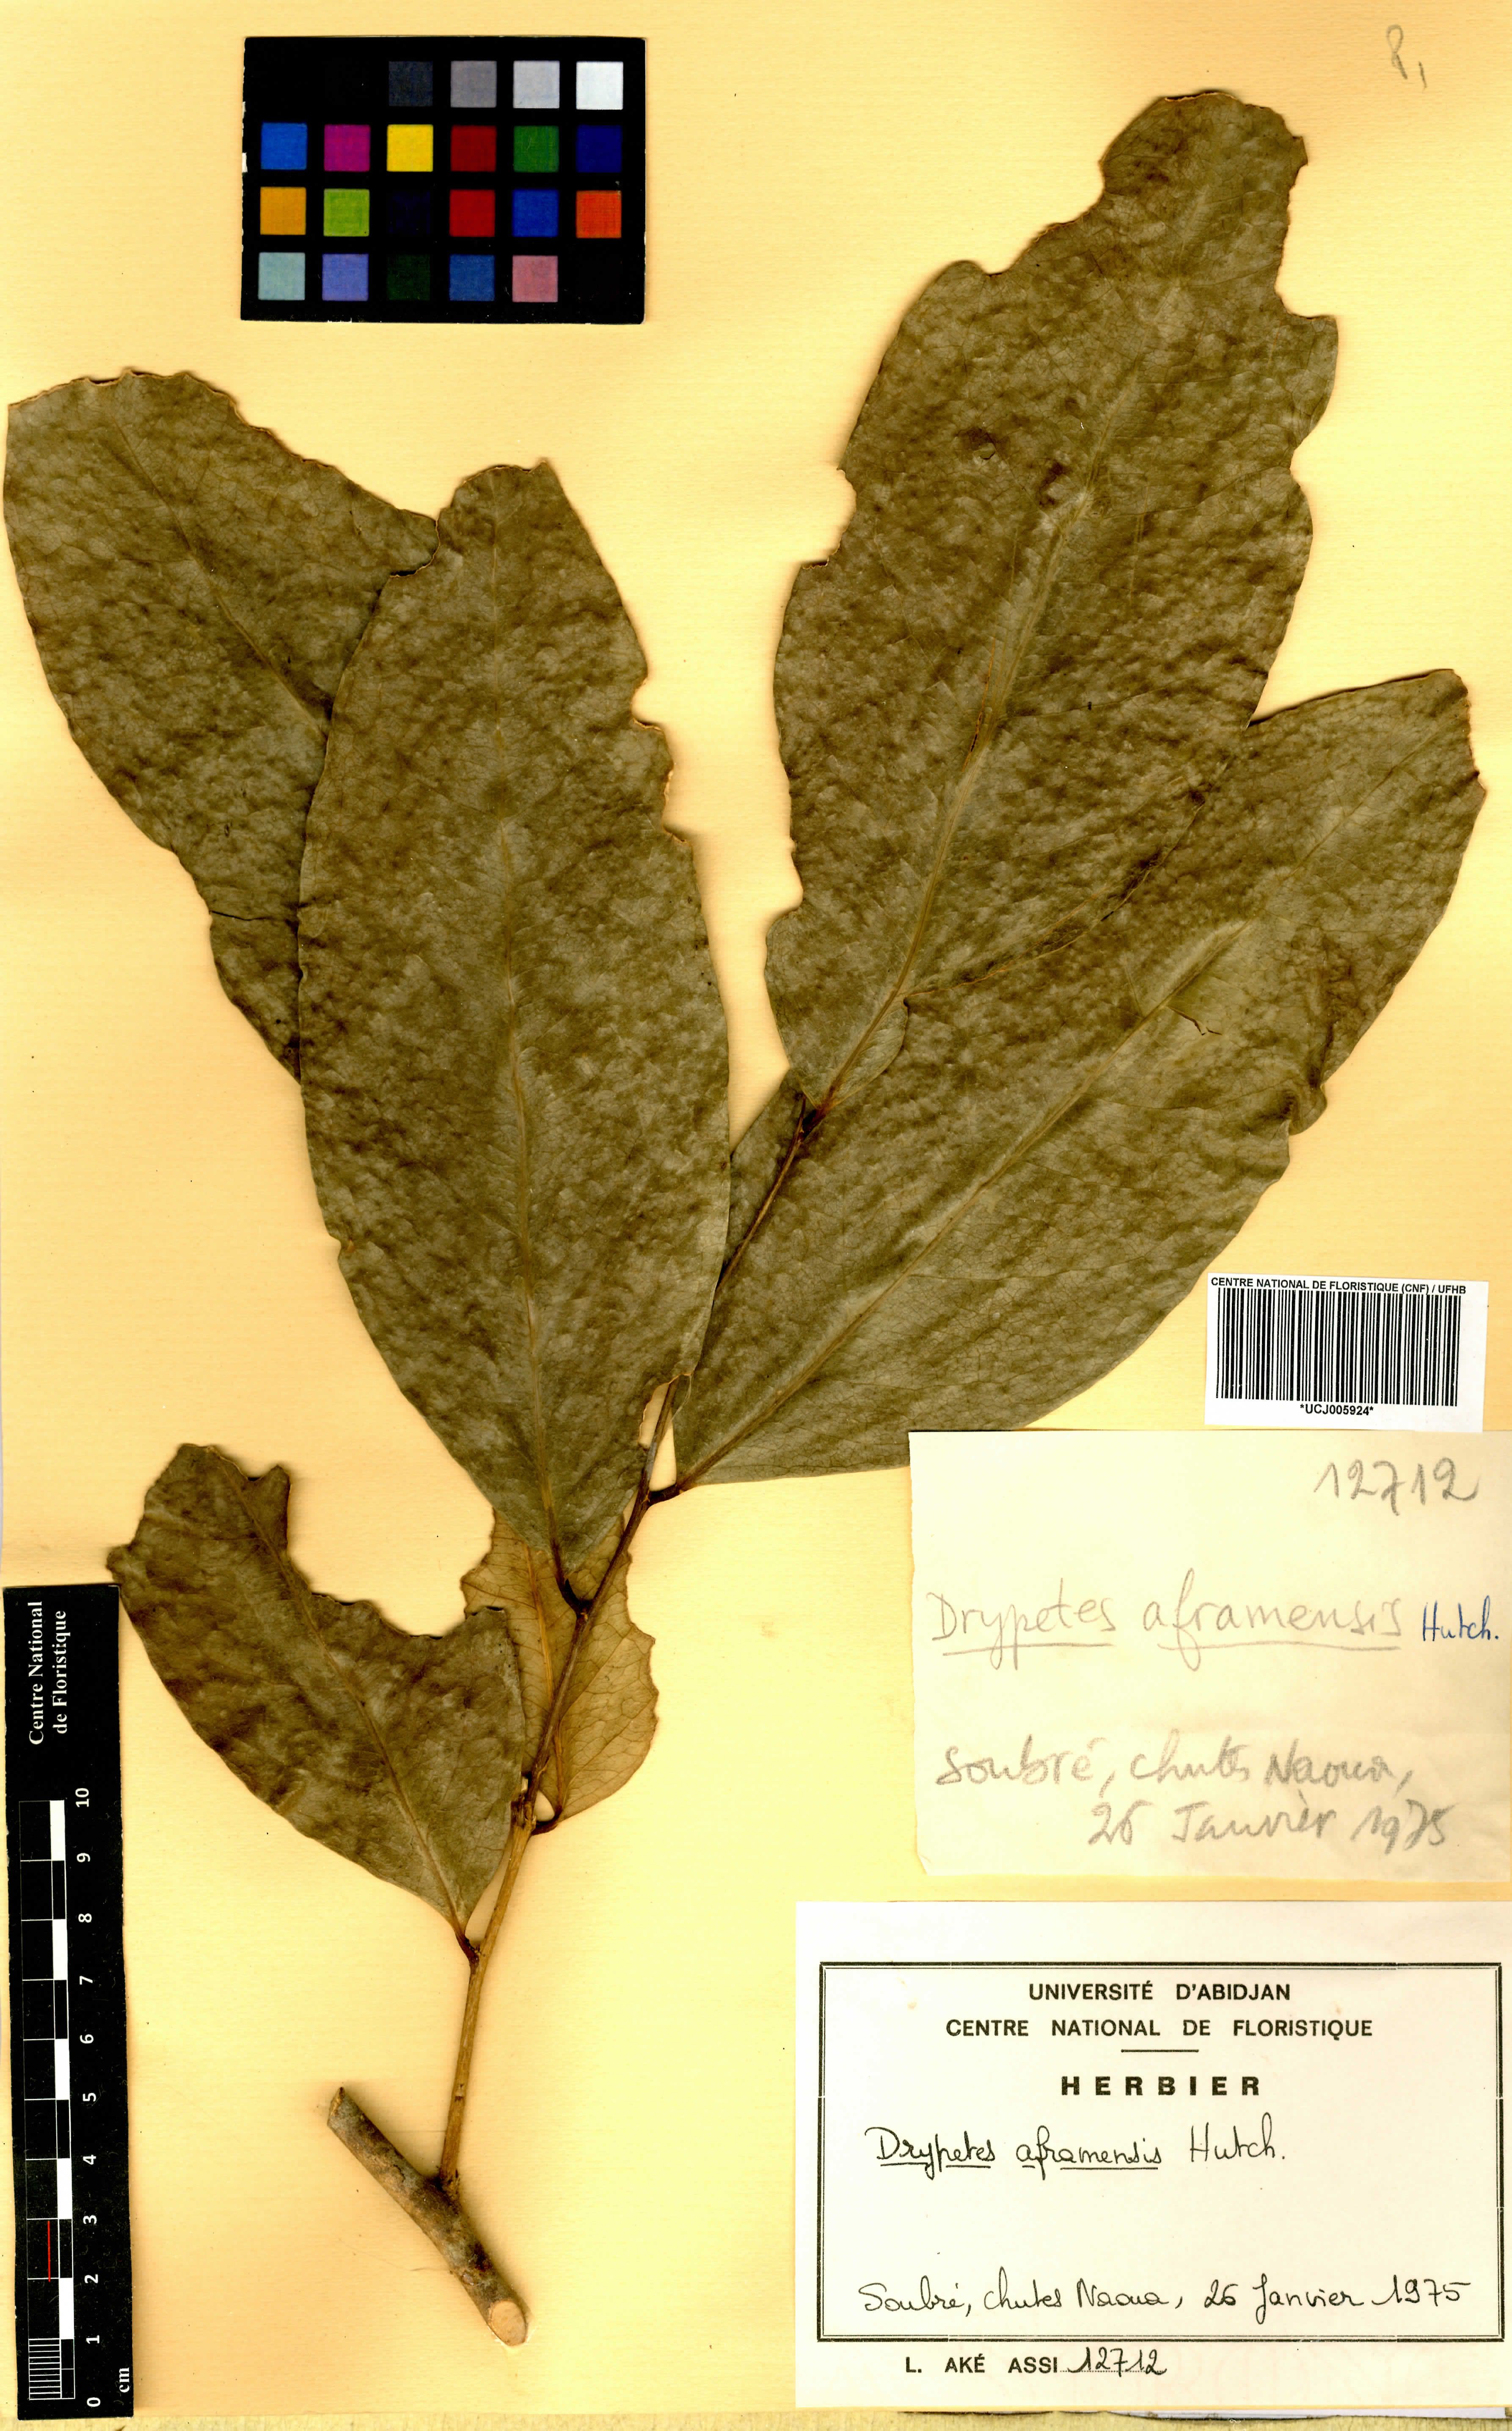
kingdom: Plantae
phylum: Tracheophyta
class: Magnoliopsida
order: Malpighiales
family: Putranjivaceae
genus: Drypetes
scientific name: Drypetes aframensis
